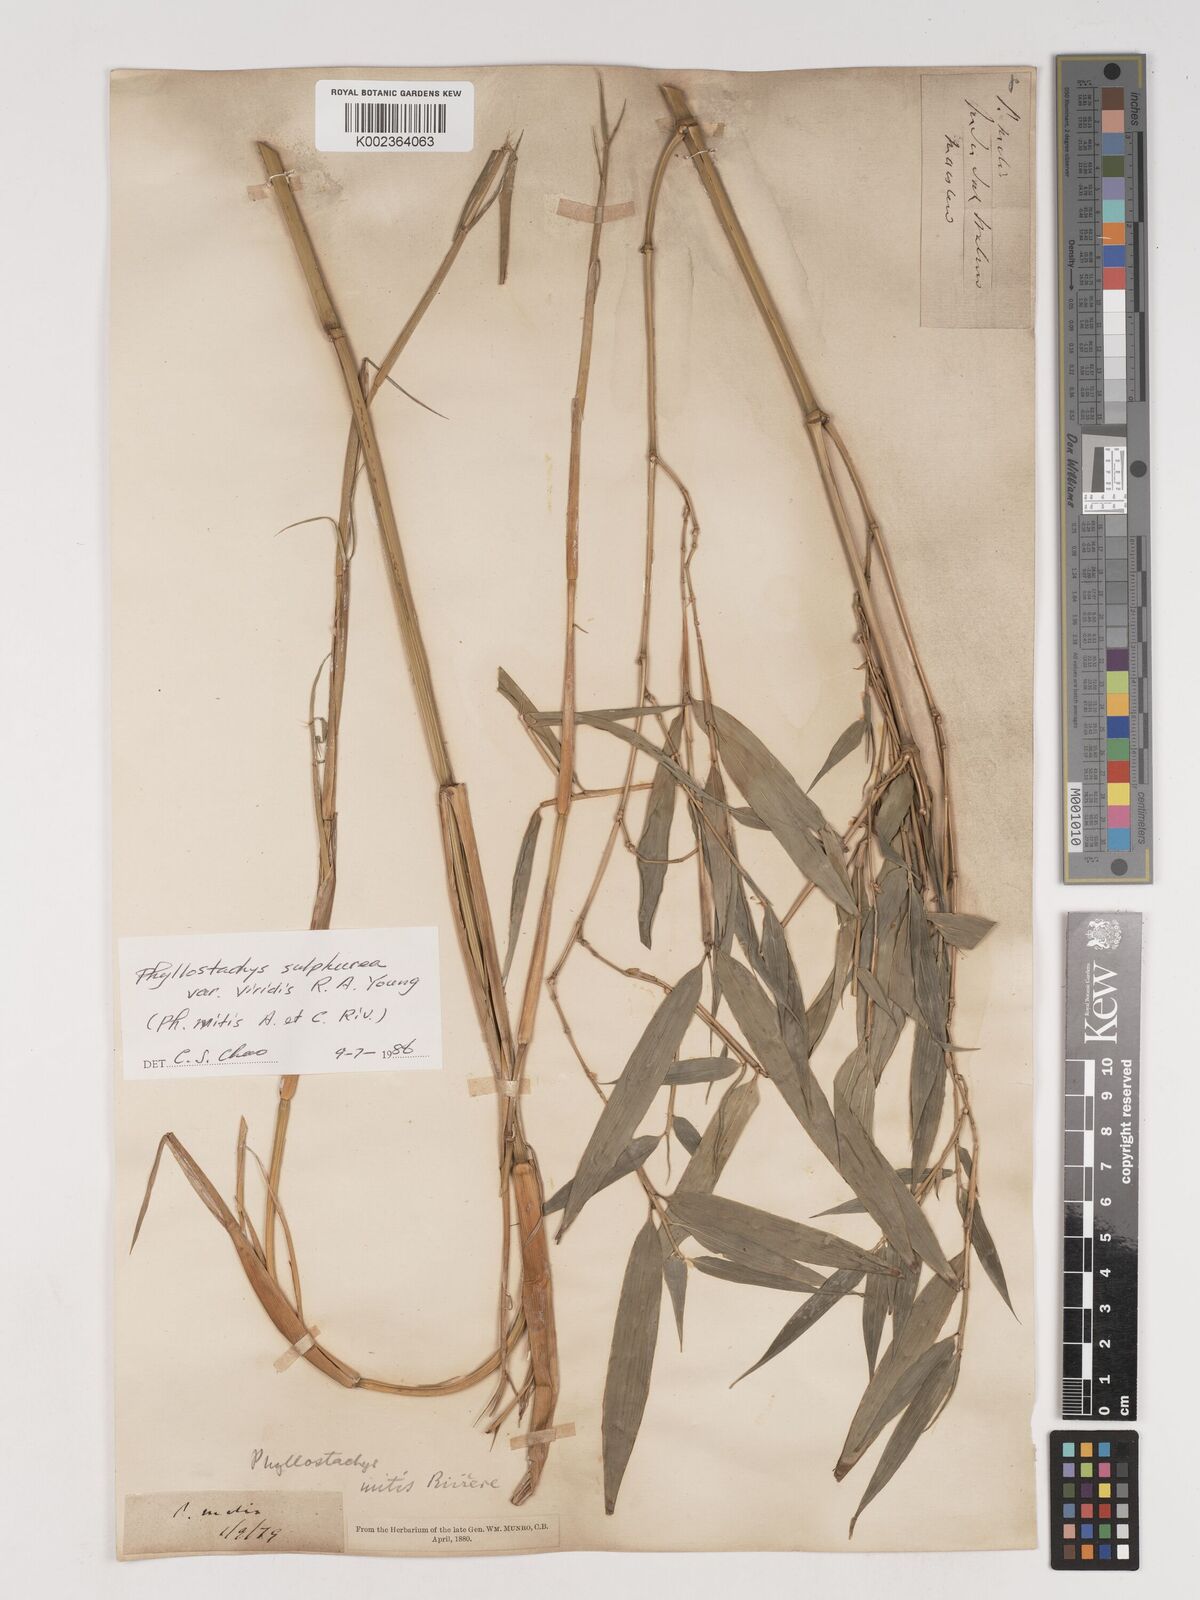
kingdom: Plantae
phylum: Tracheophyta
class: Liliopsida
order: Poales
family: Poaceae
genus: Phyllostachys
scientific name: Phyllostachys sulphurea
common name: Sulphur bamboo
